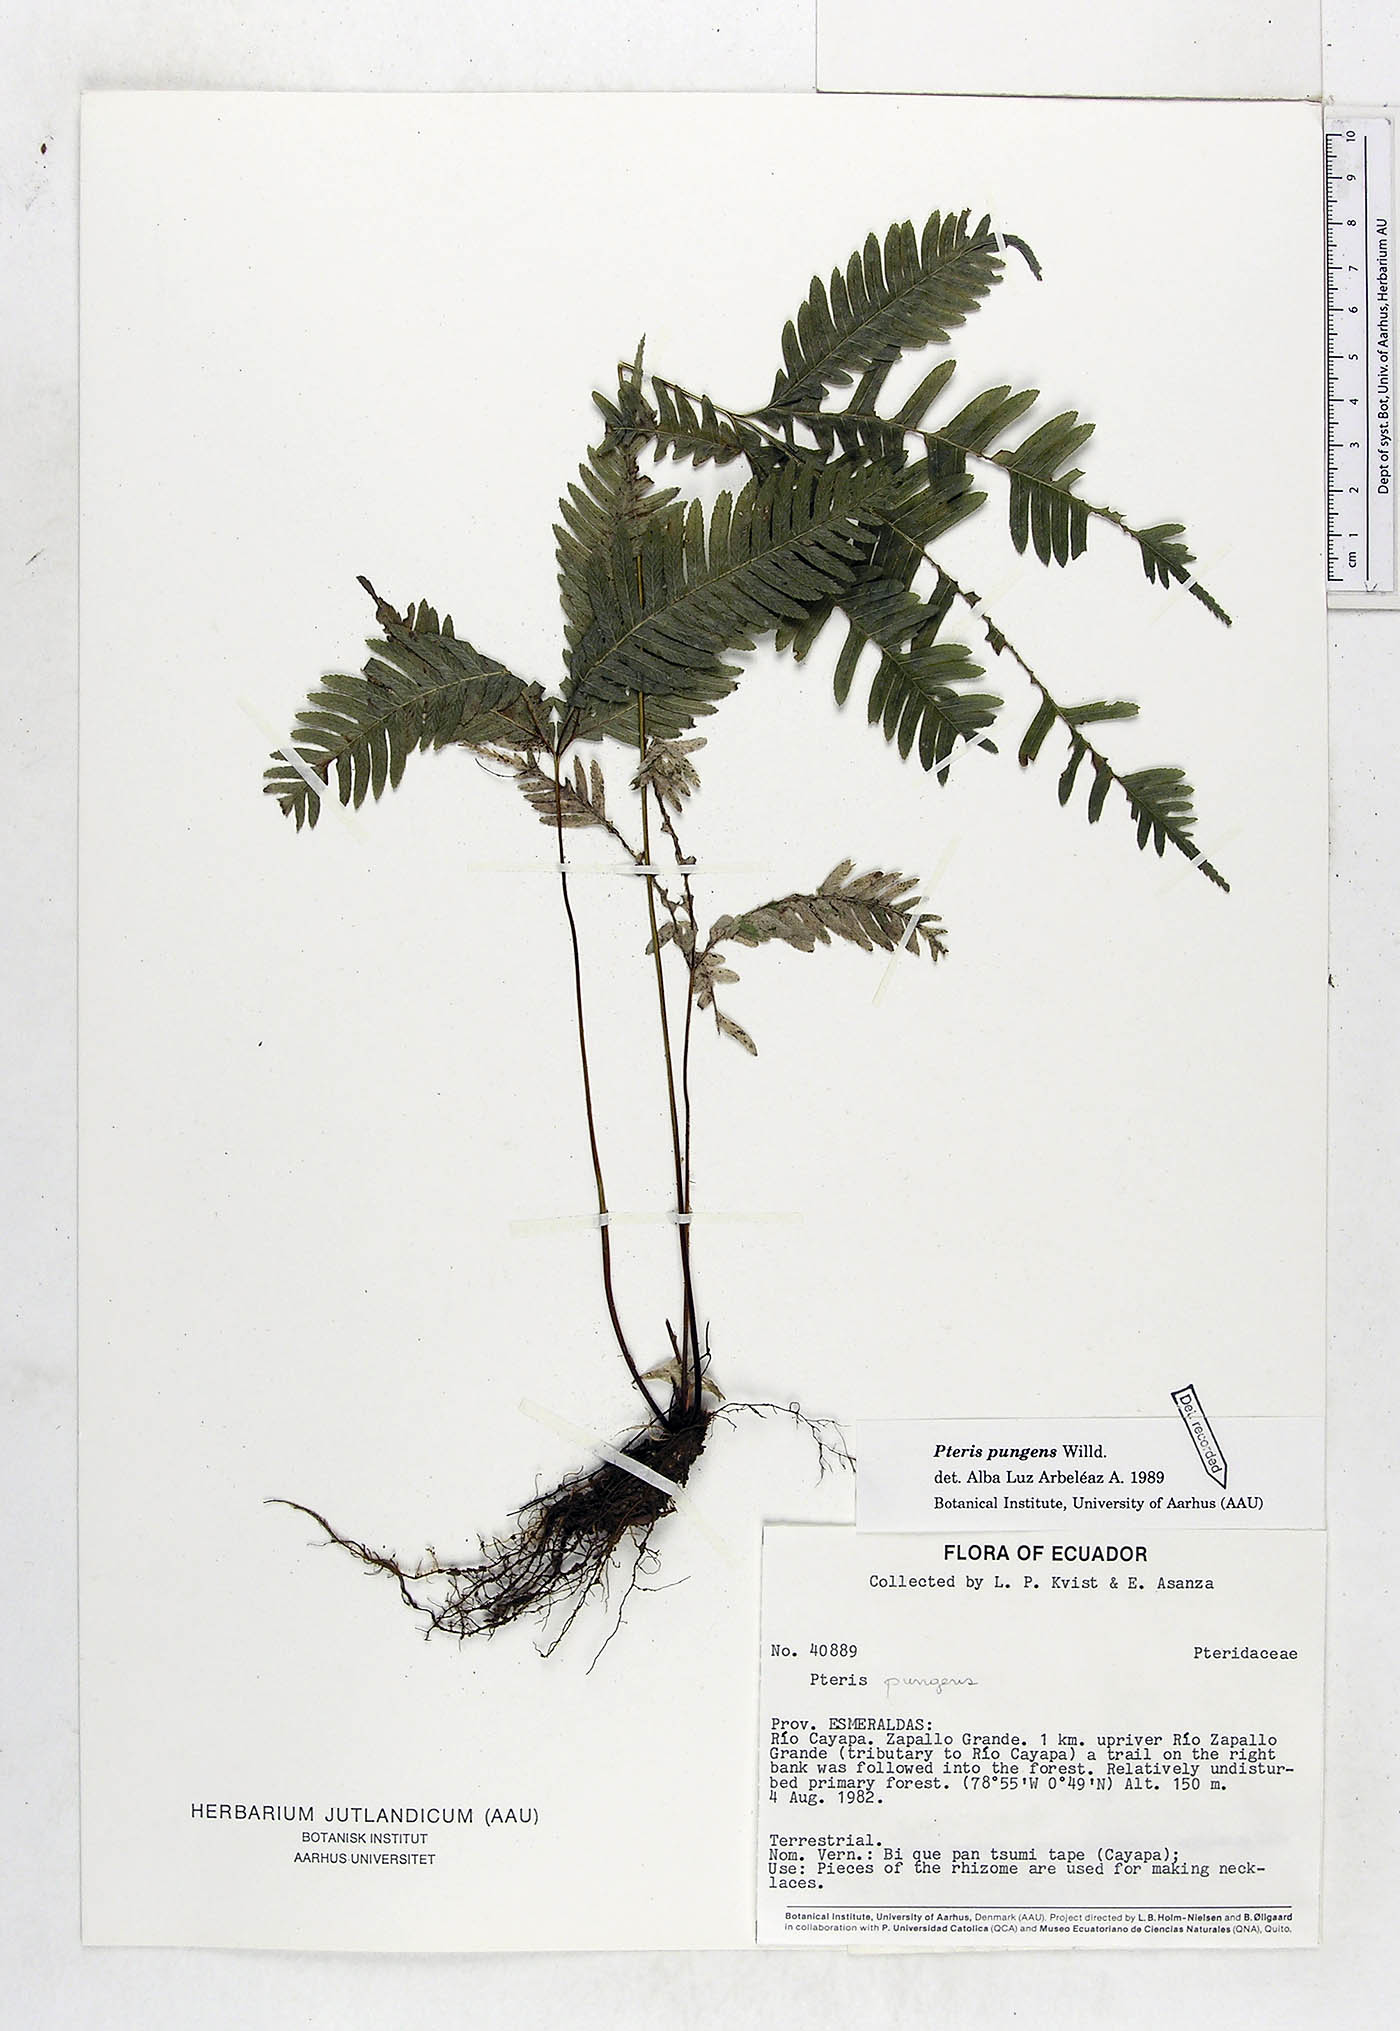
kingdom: Plantae
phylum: Tracheophyta
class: Polypodiopsida
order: Polypodiales
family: Pteridaceae
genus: Pteris
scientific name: Pteris pungens
